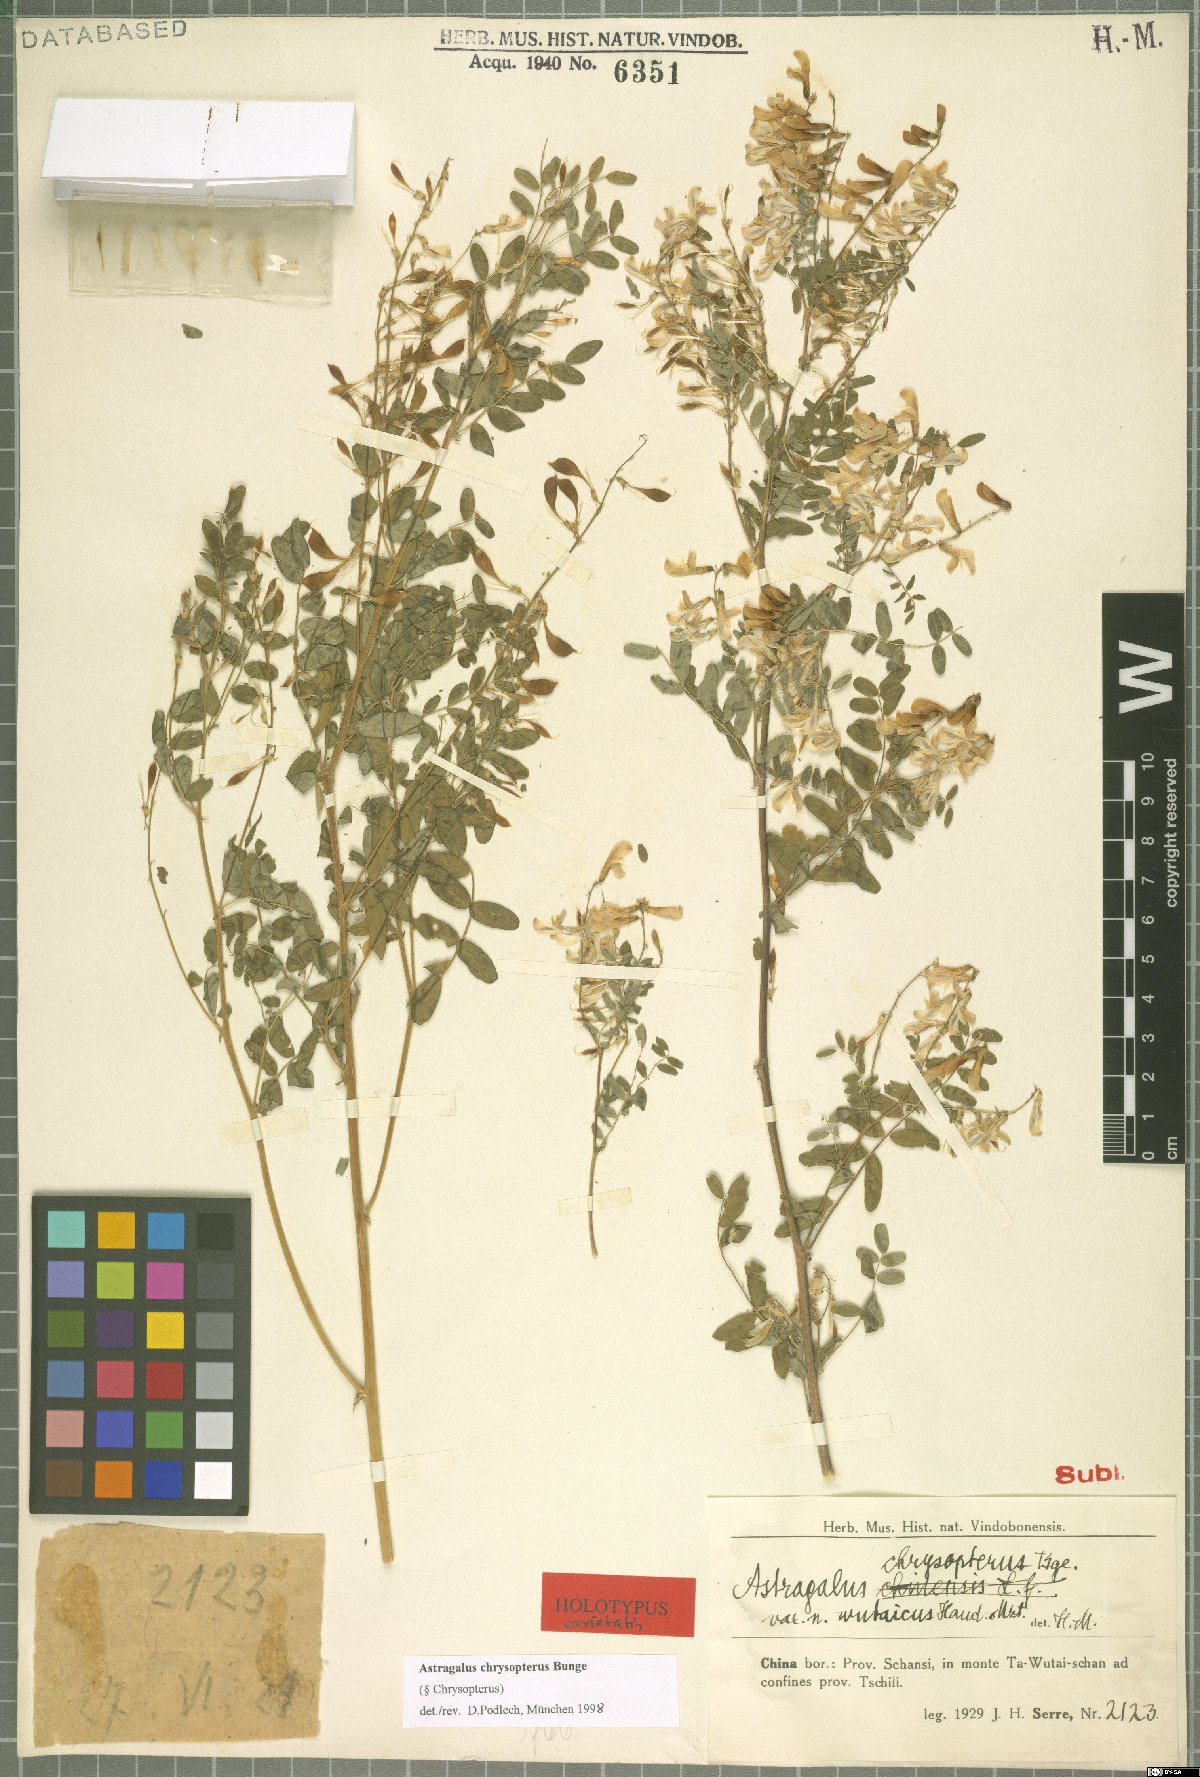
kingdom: Plantae
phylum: Tracheophyta
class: Magnoliopsida
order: Fabales
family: Fabaceae
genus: Astragalus
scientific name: Astragalus chrysopterus
